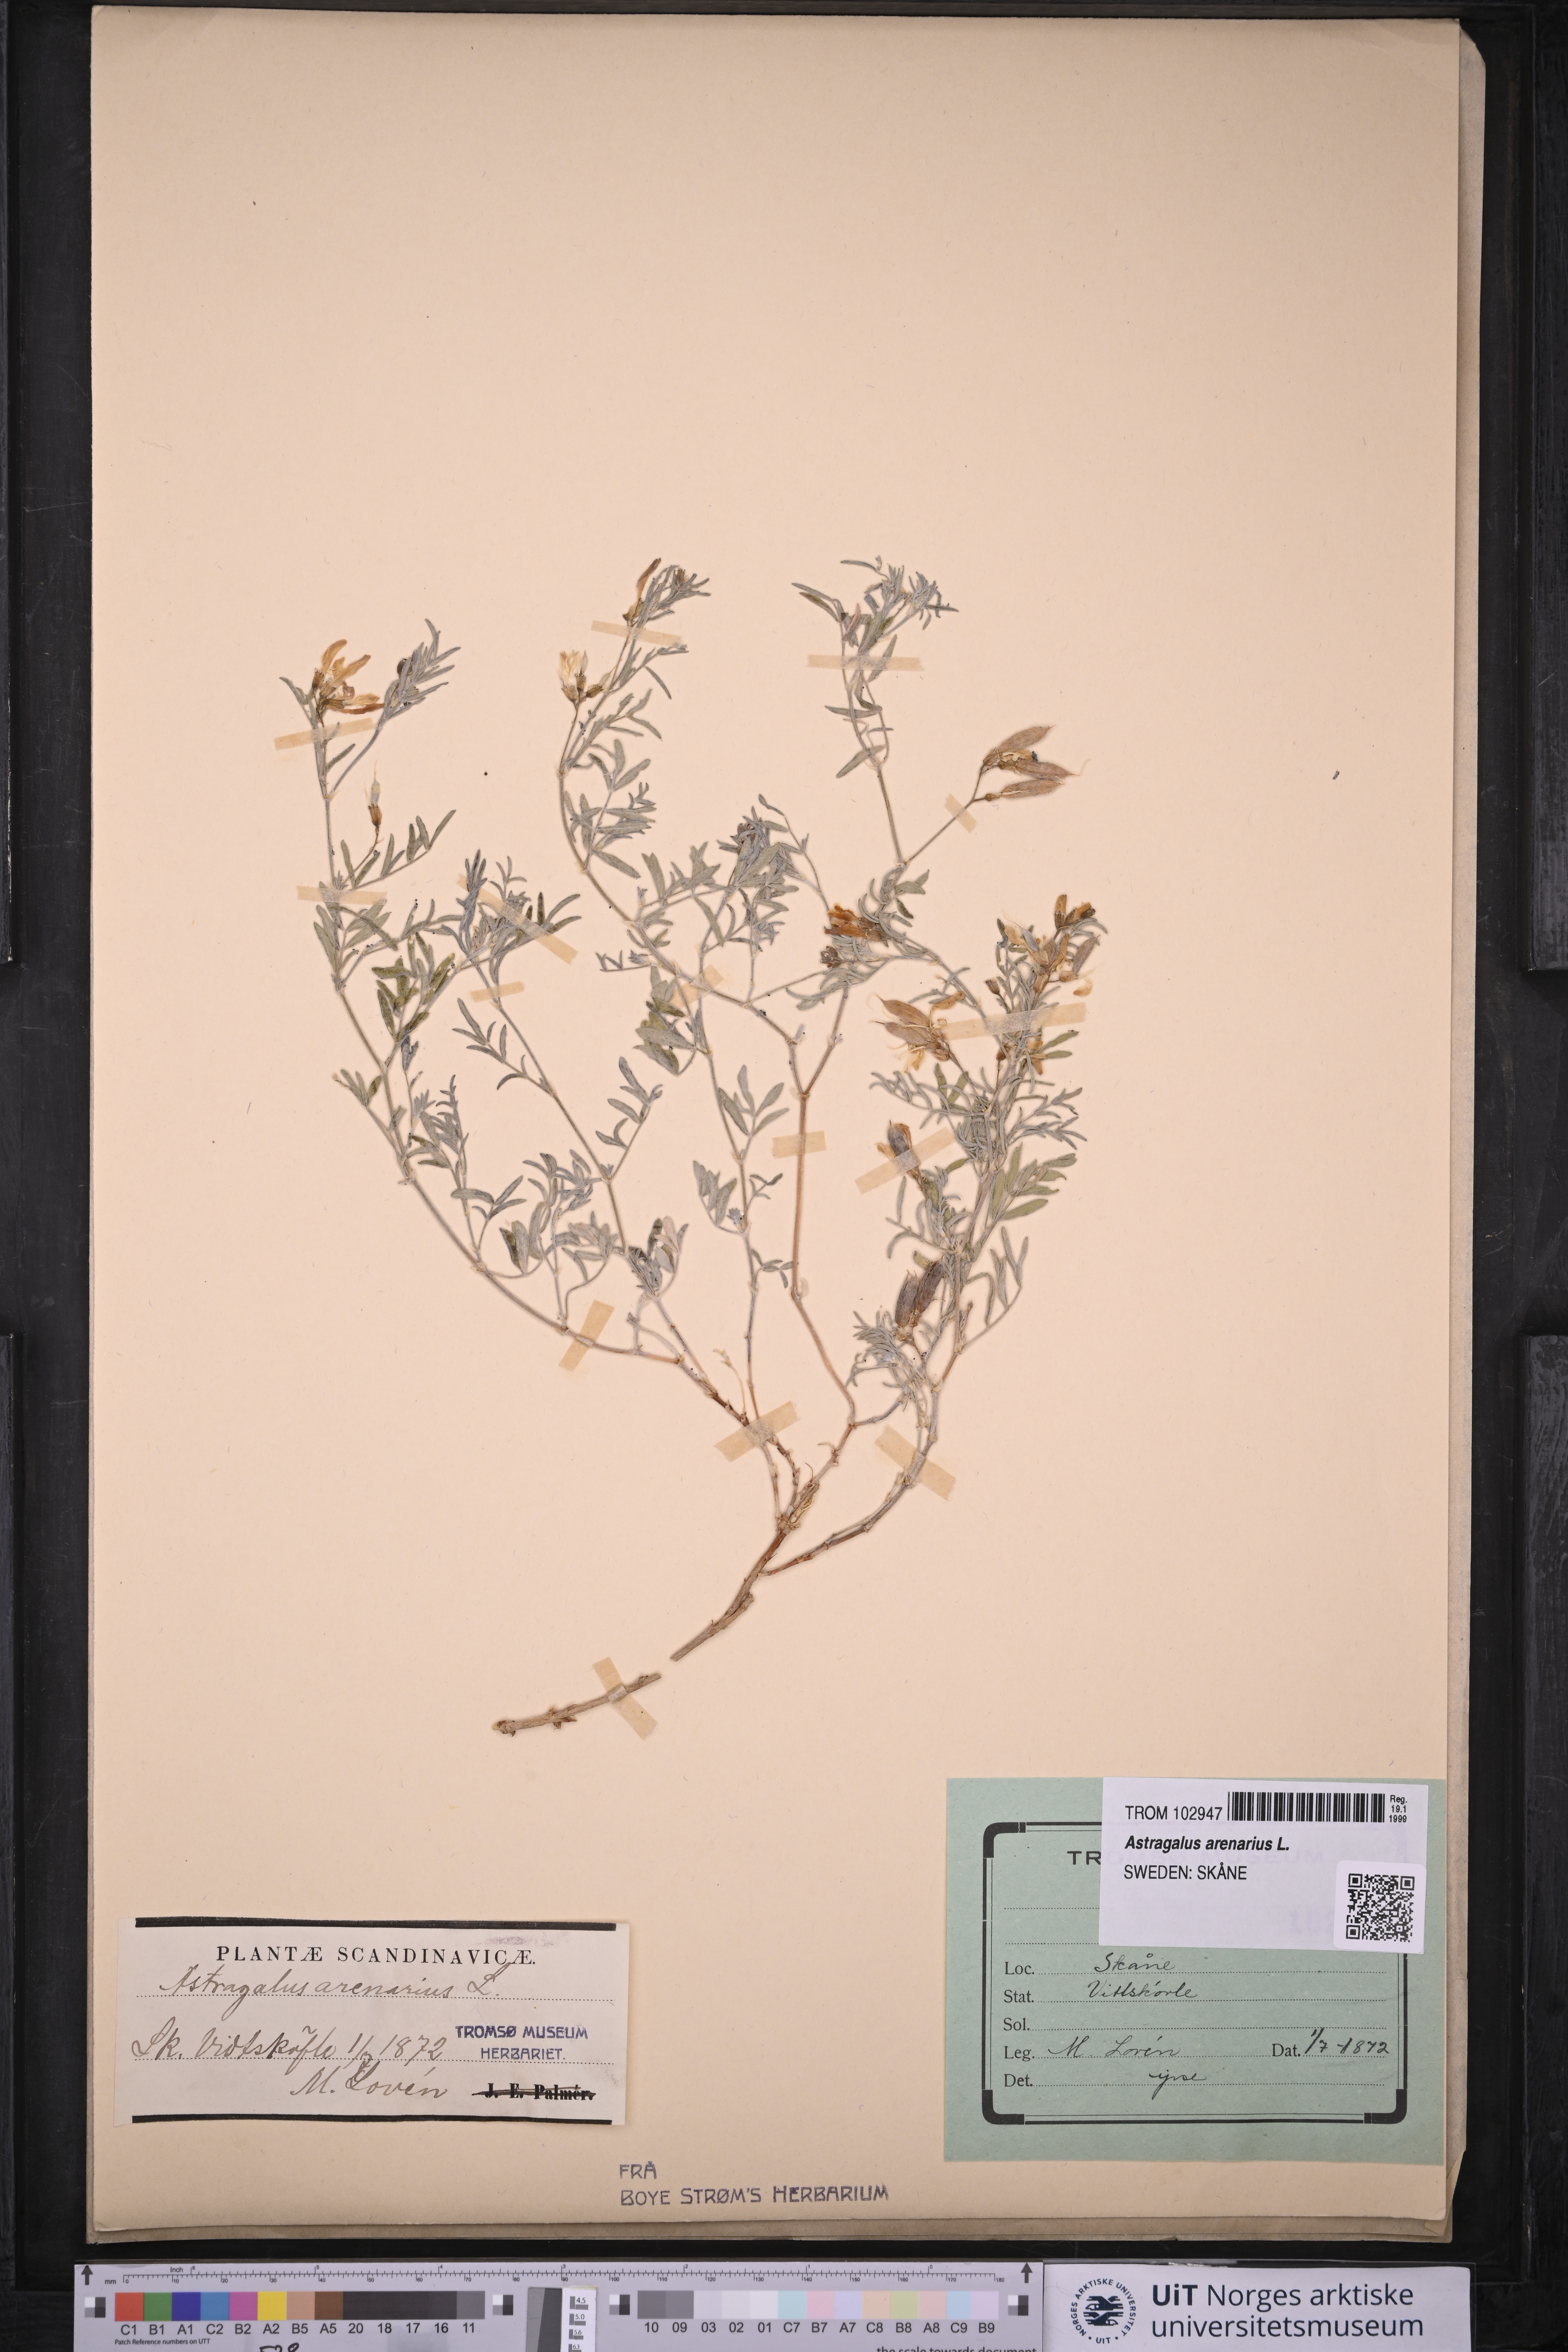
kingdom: Plantae
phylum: Tracheophyta
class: Magnoliopsida
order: Fabales
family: Fabaceae
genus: Astragalus
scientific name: Astragalus arenarius
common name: Arenarious milk-vetch
